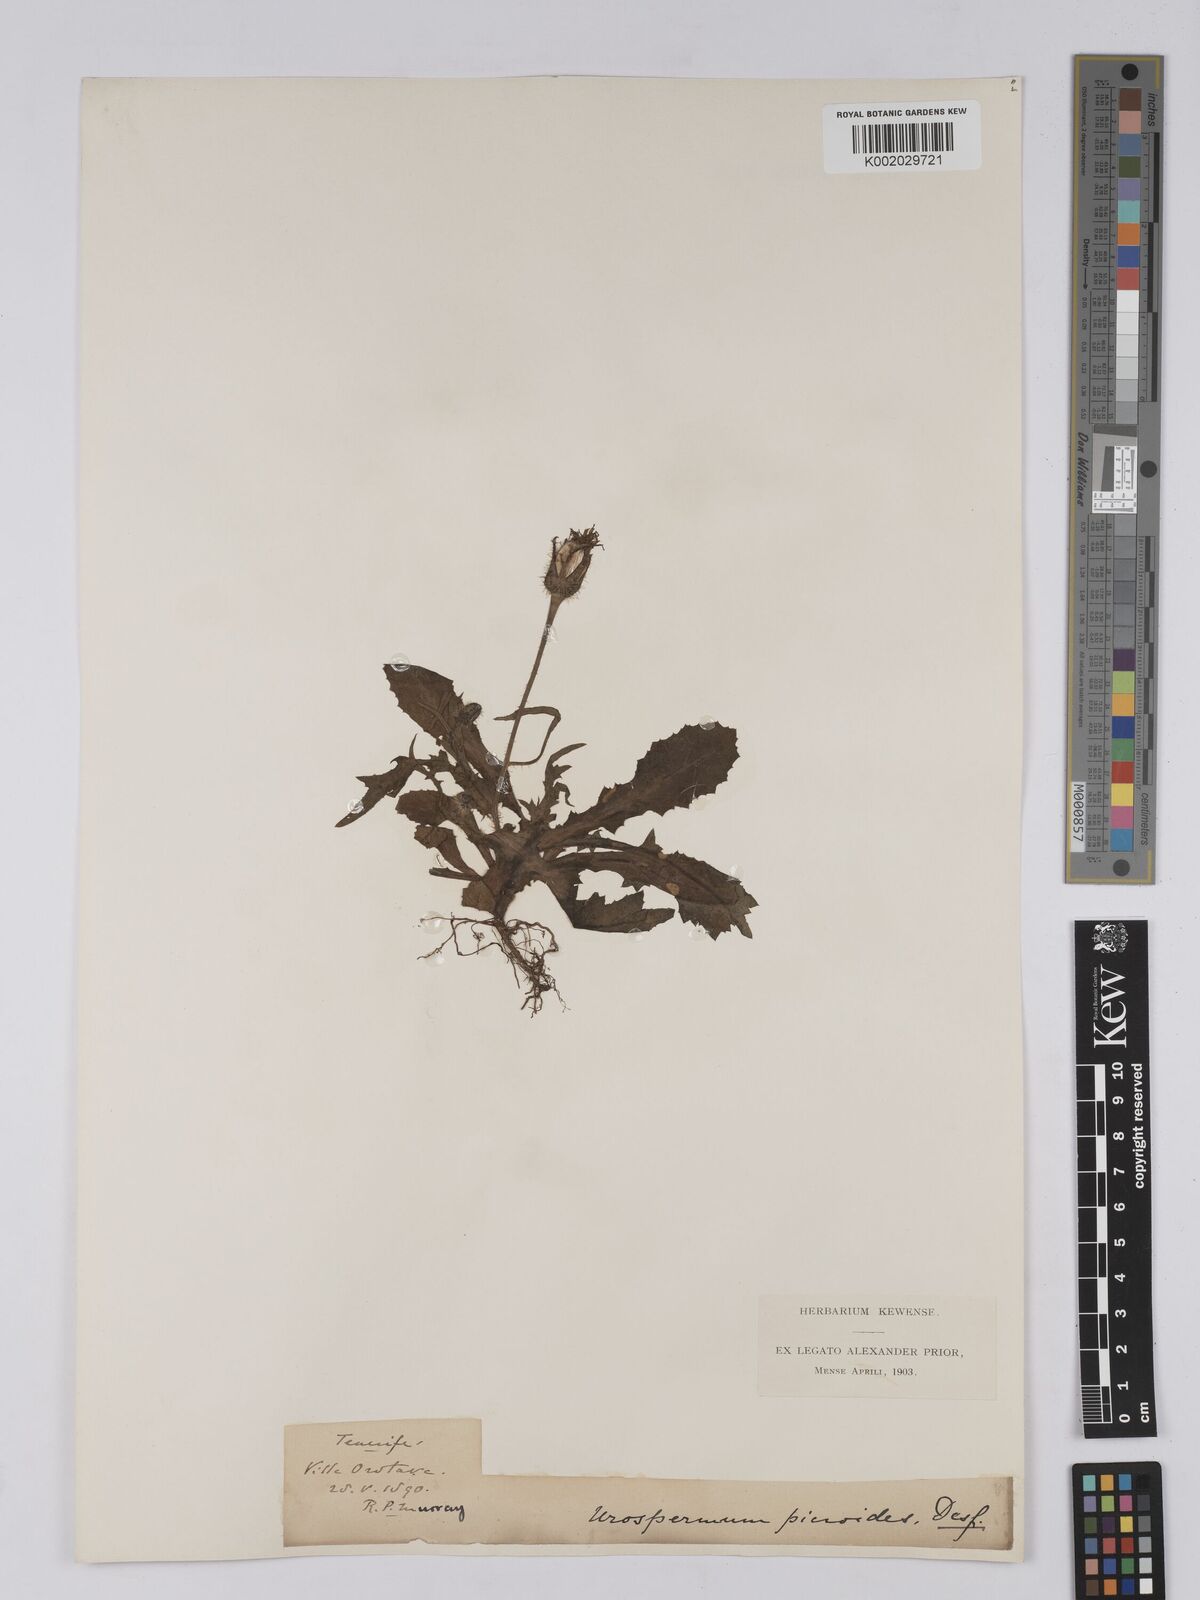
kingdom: Plantae
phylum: Tracheophyta
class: Magnoliopsida
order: Asterales
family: Asteraceae
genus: Urospermum
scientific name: Urospermum picroides
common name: False hawkbit
